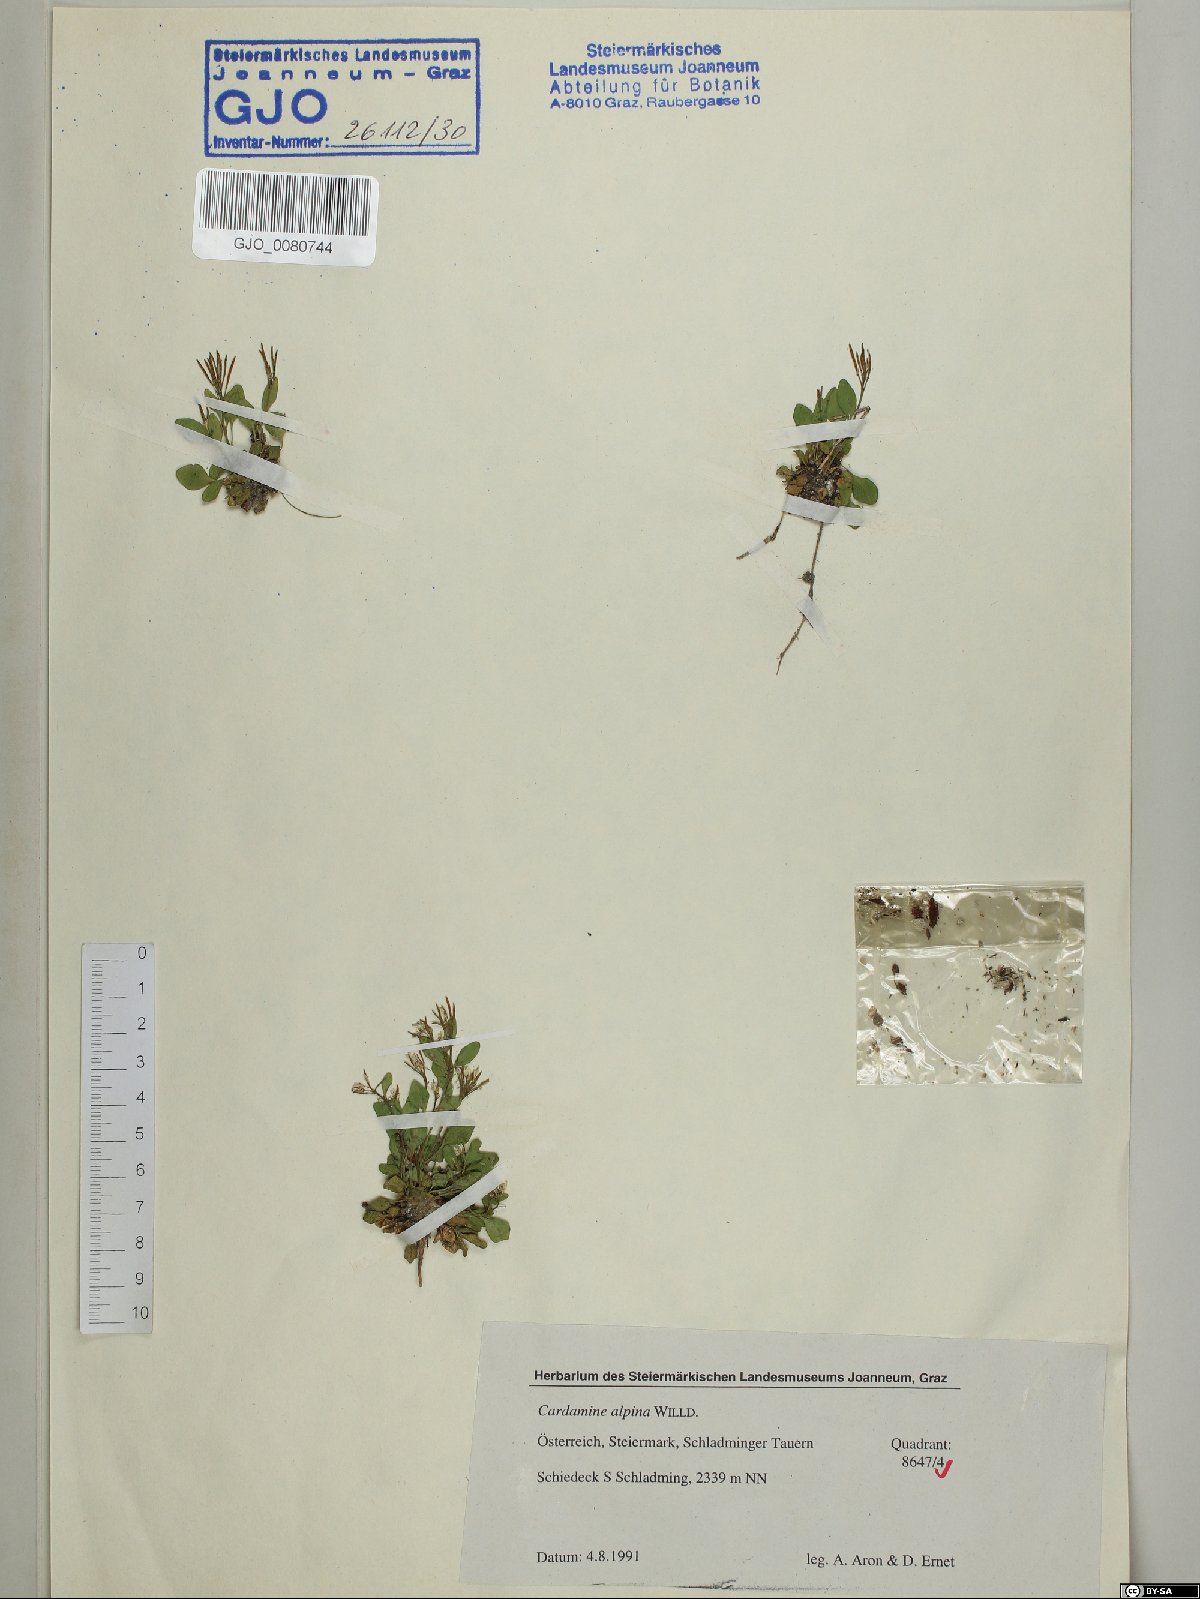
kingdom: Plantae
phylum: Tracheophyta
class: Magnoliopsida
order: Brassicales
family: Brassicaceae
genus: Cardamine
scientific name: Cardamine bellidifolia
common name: Alpine bittercress
